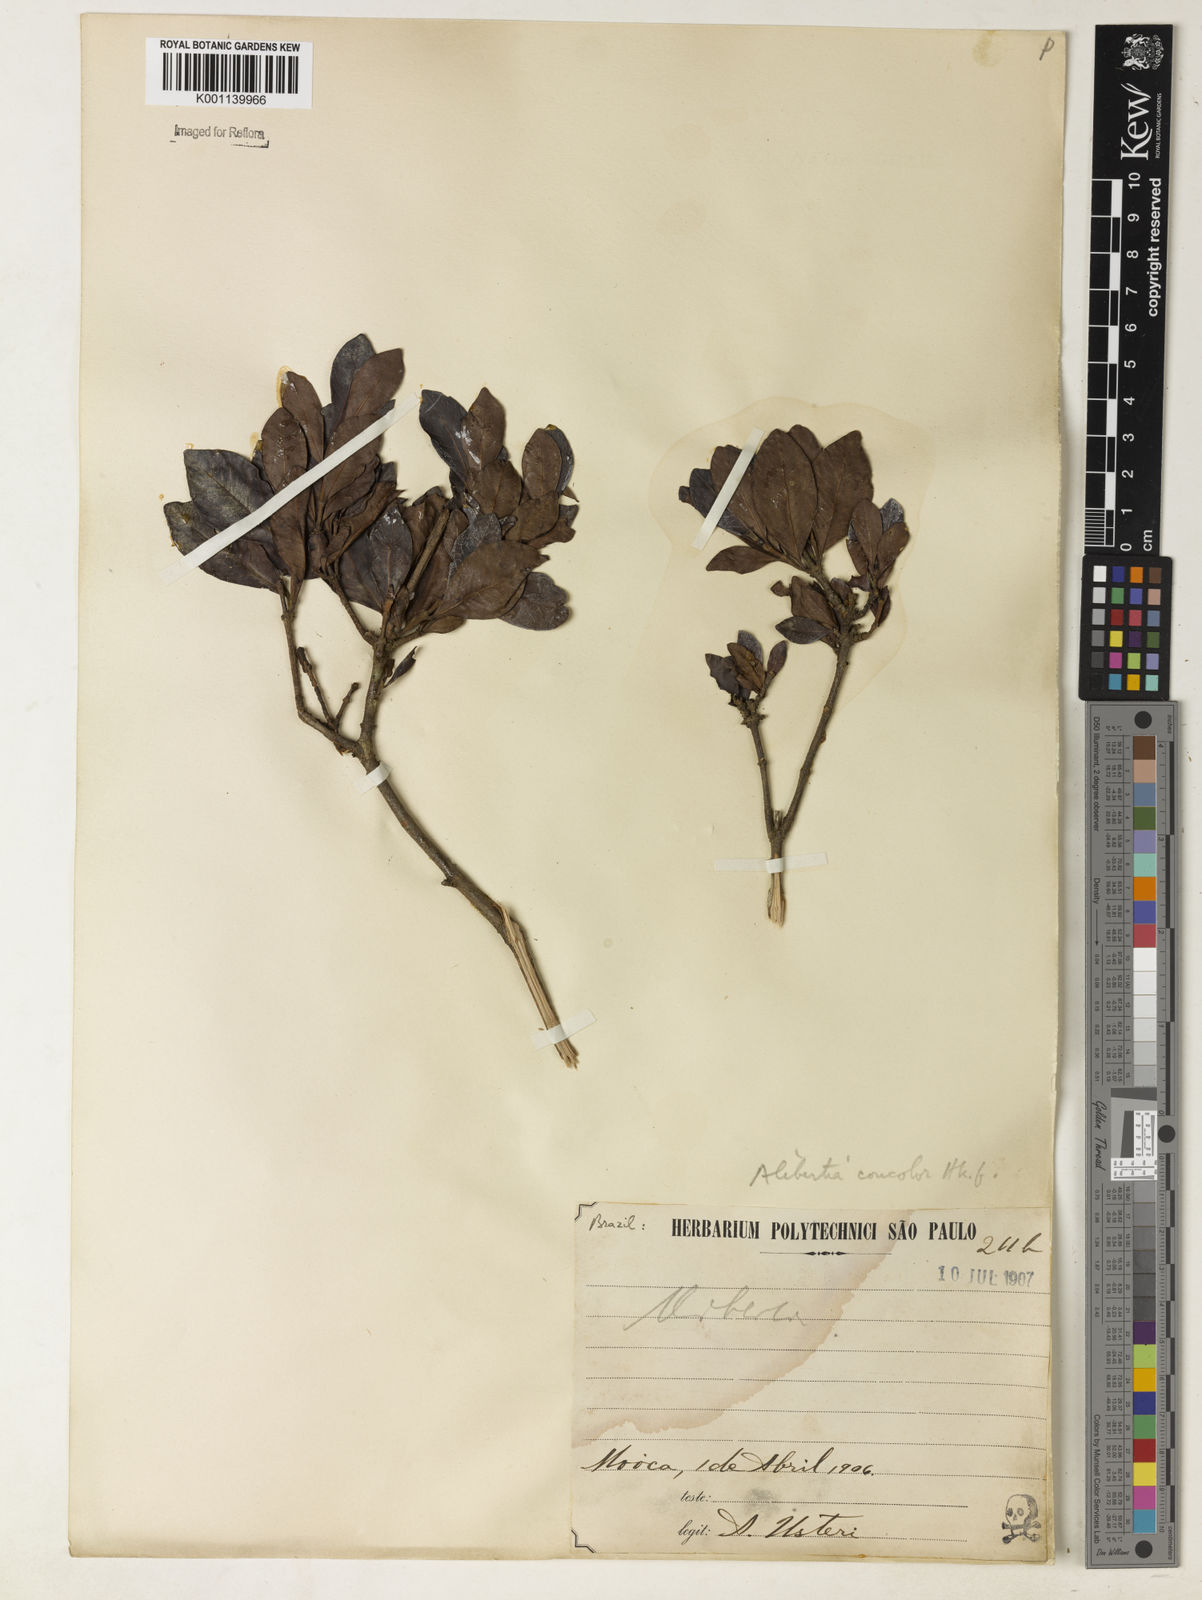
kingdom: Plantae
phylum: Tracheophyta
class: Magnoliopsida
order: Gentianales
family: Rubiaceae
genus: Cordiera
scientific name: Cordiera concolor
